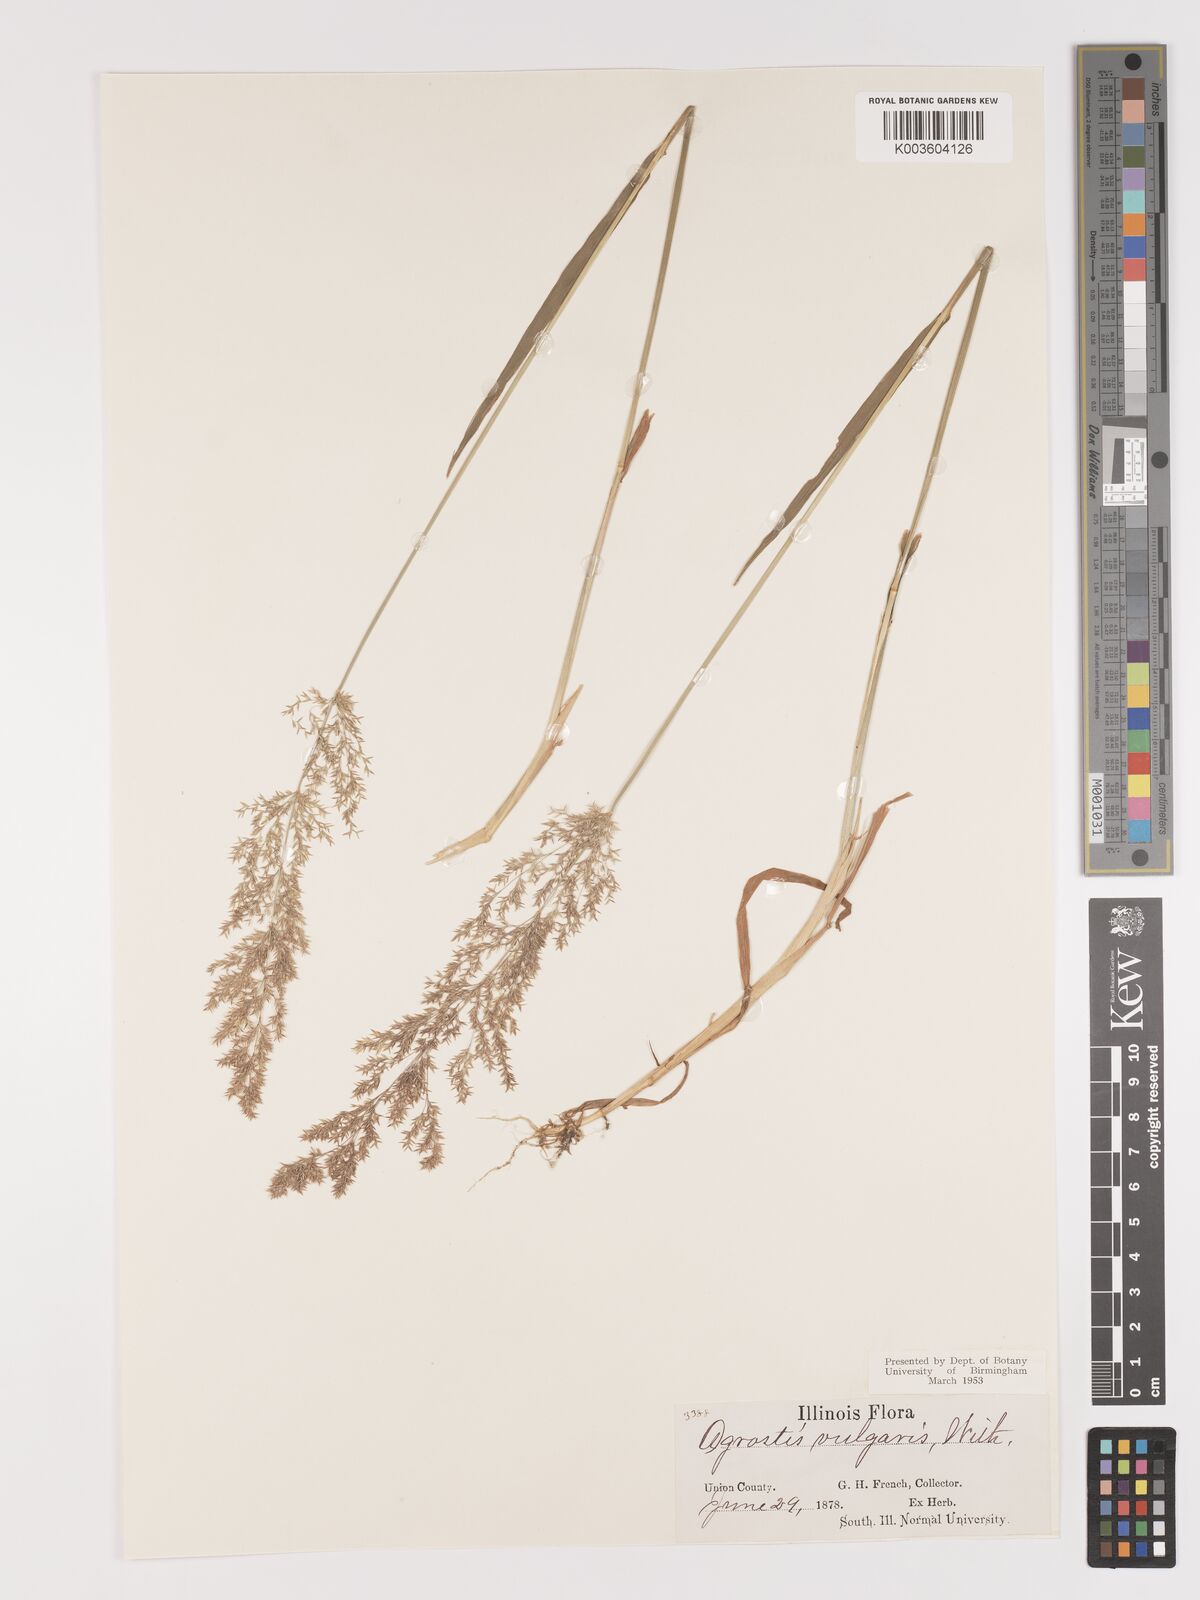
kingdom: Plantae
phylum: Tracheophyta
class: Liliopsida
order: Poales
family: Poaceae
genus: Agrostis
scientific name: Agrostis capillaris
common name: Colonial bentgrass
